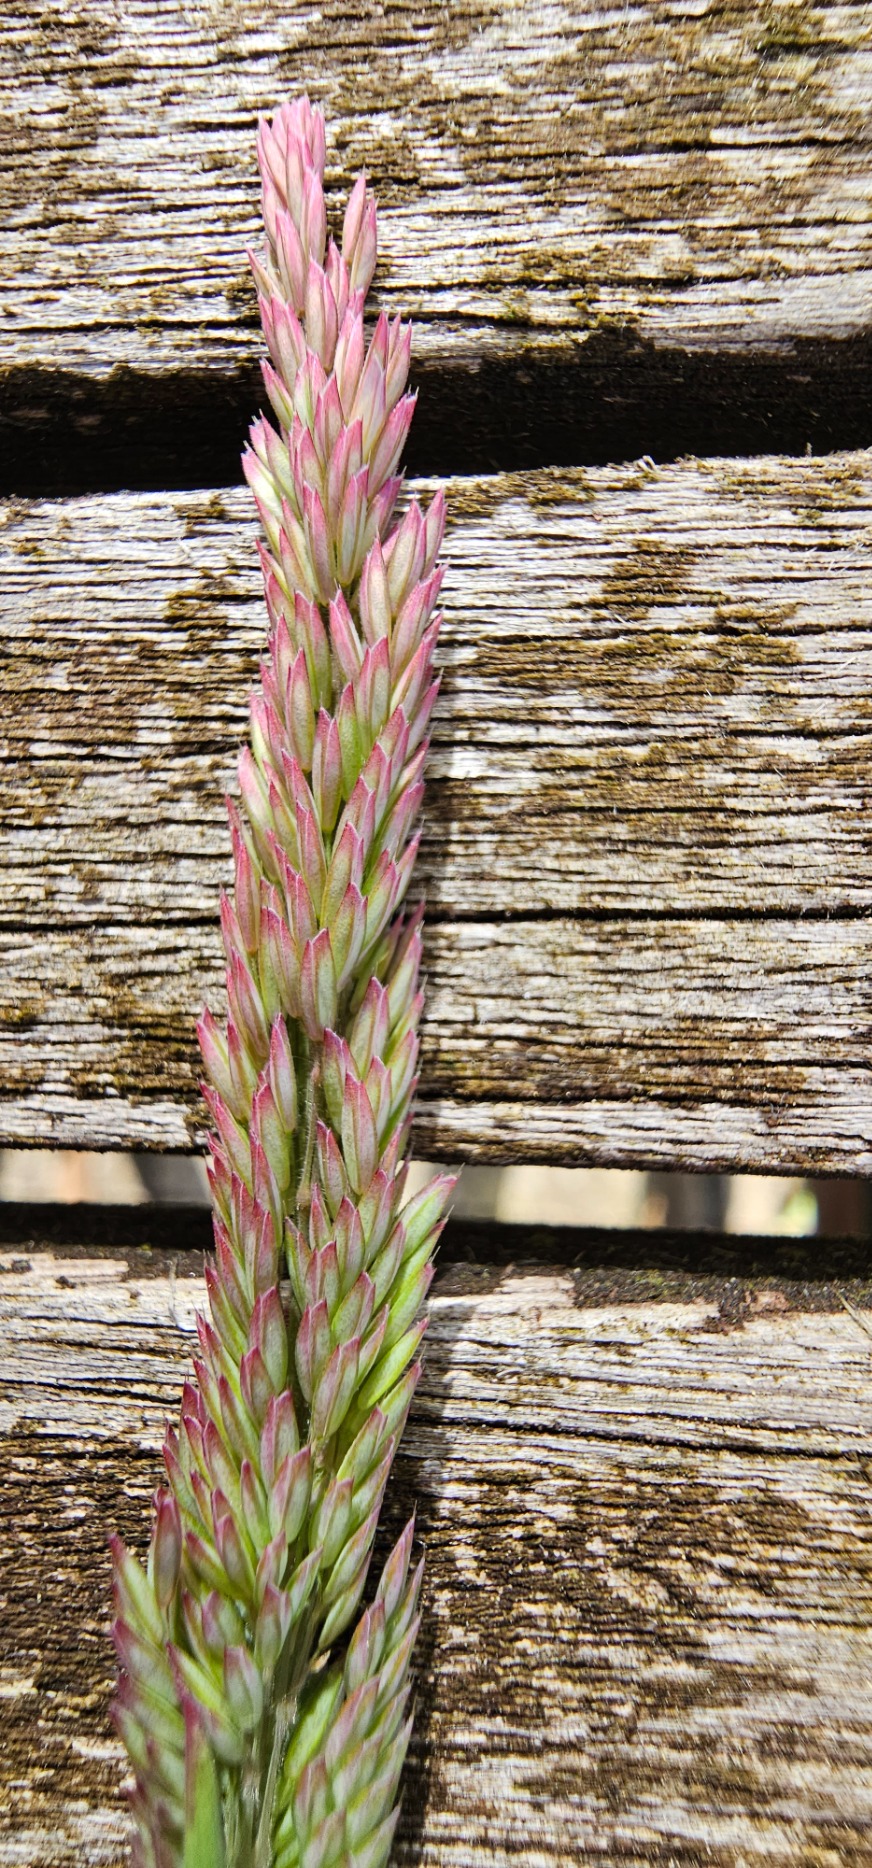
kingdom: Plantae
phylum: Tracheophyta
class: Liliopsida
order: Poales
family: Poaceae
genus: Holcus
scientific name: Holcus lanatus
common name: Fløjlsgræs
